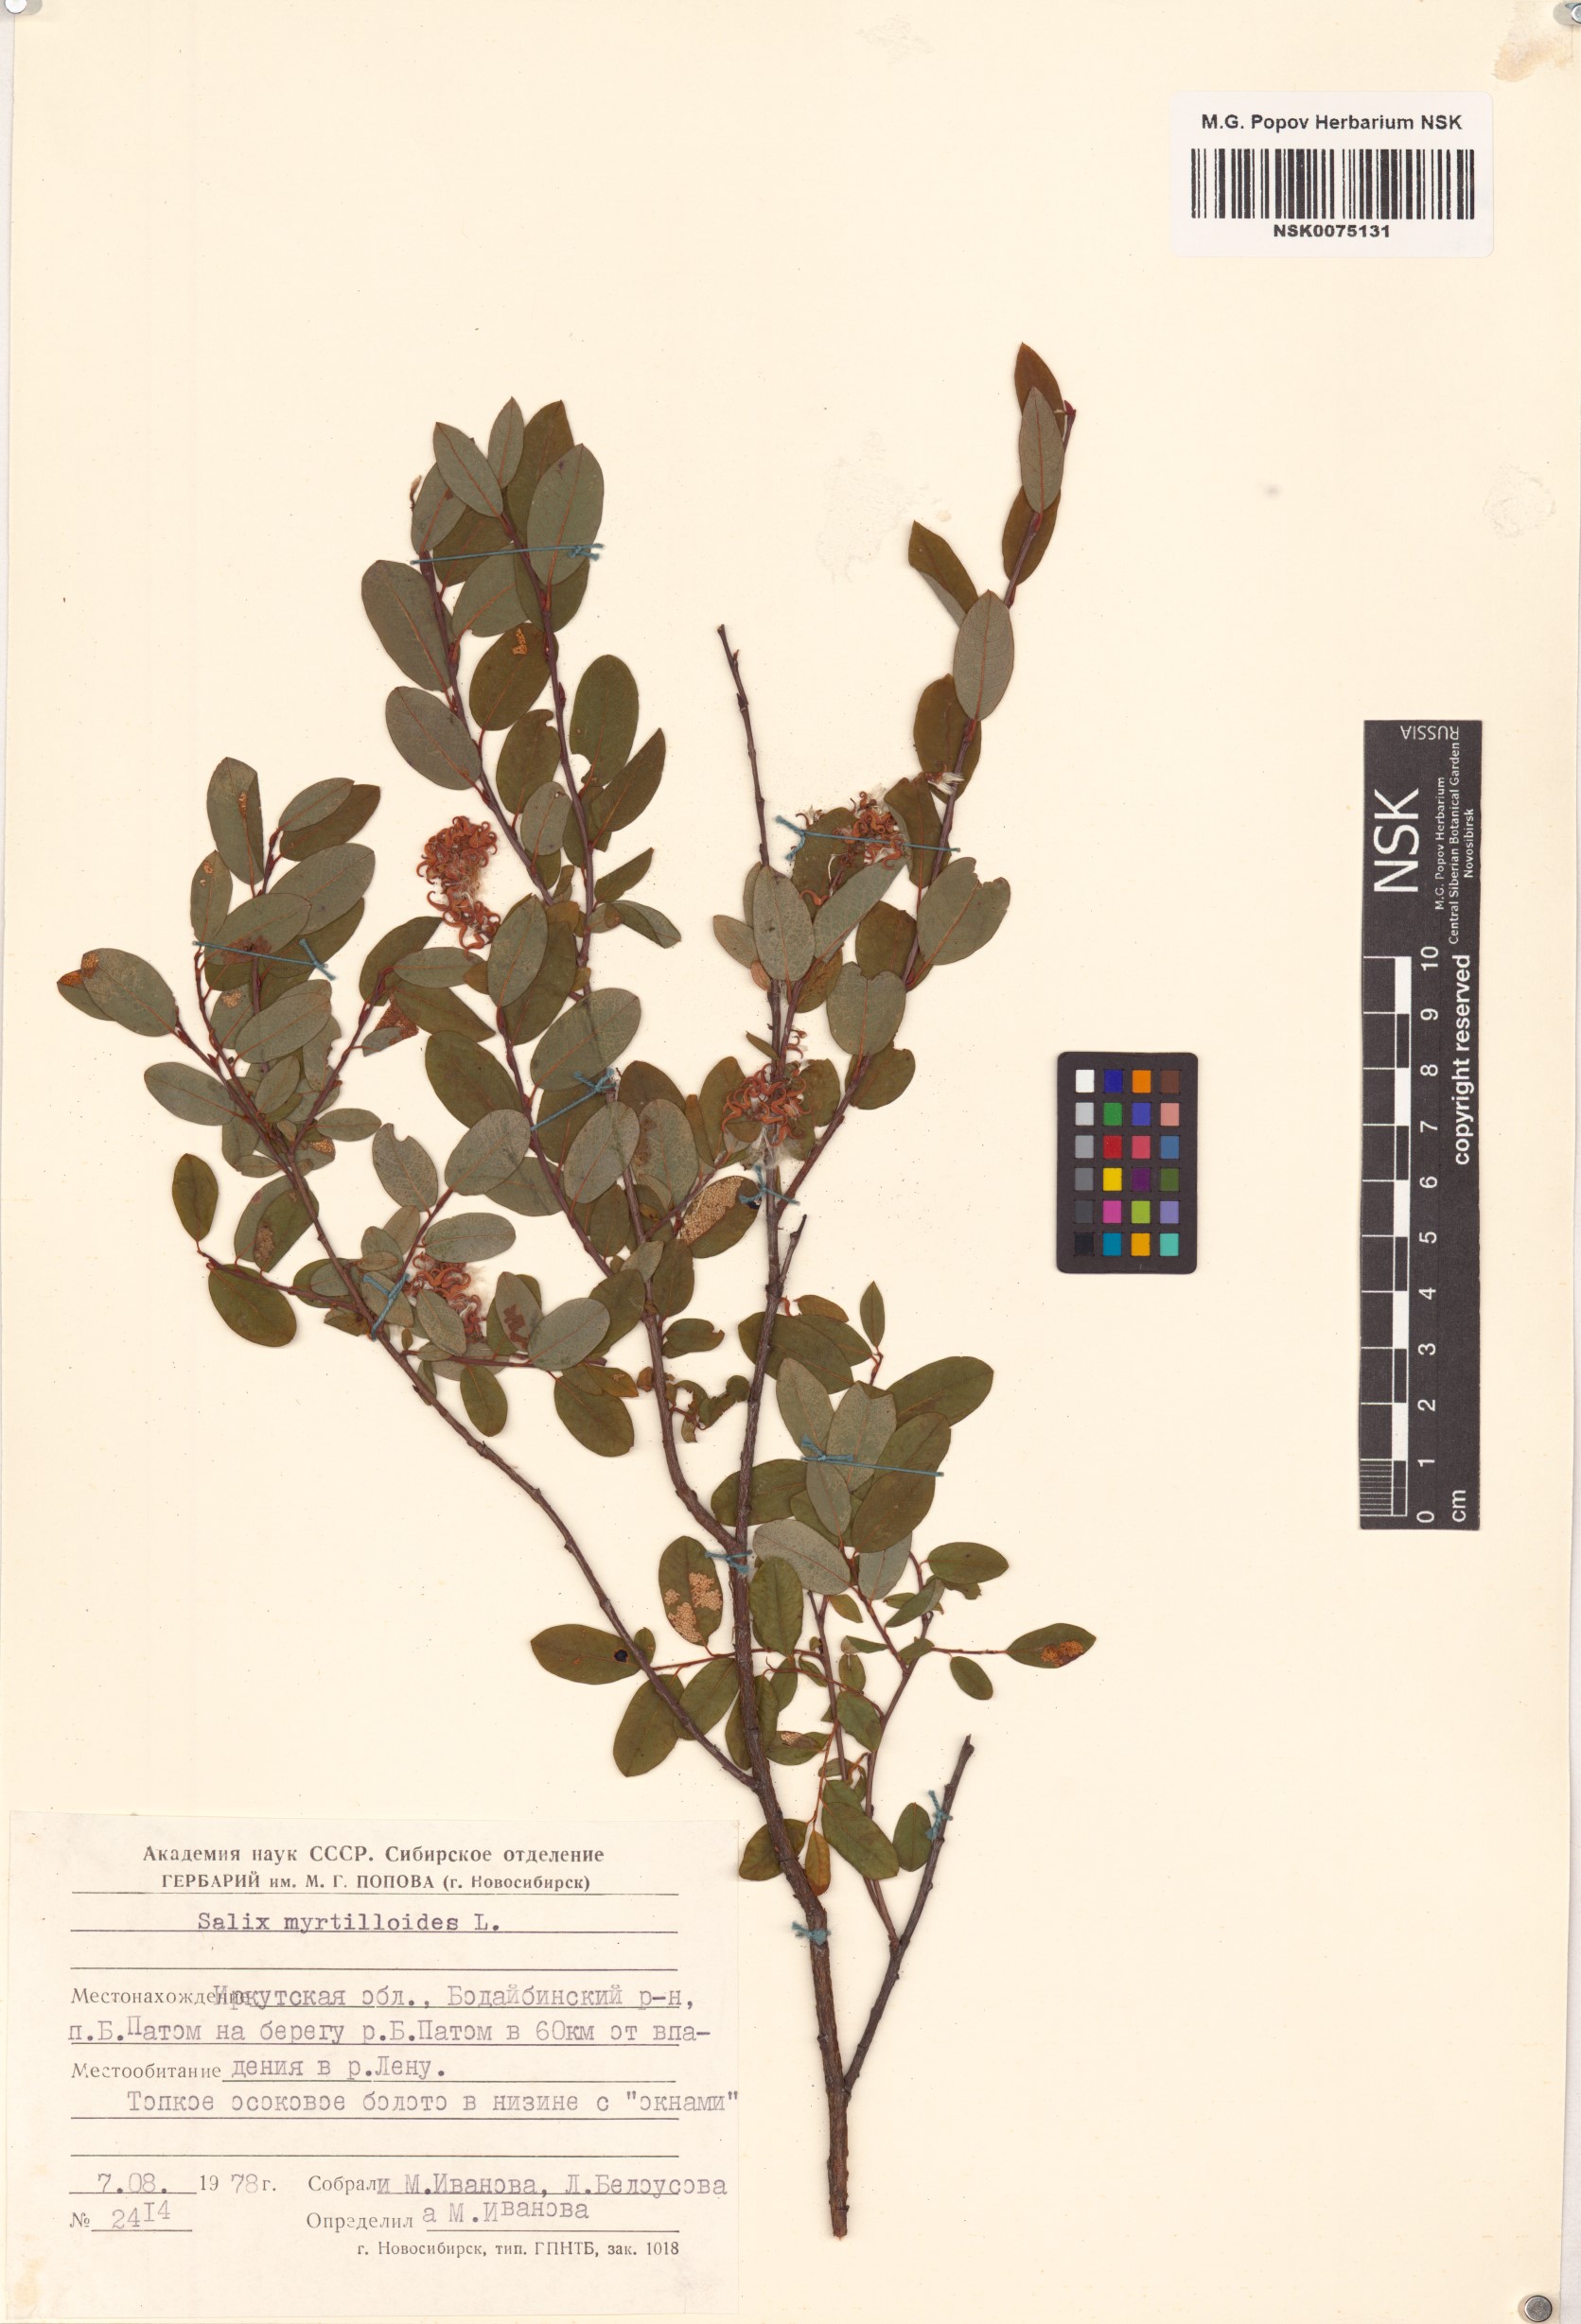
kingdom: Plantae
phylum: Tracheophyta
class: Magnoliopsida
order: Malpighiales
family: Salicaceae
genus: Salix
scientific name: Salix myrtilloides
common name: Myrtle-leaved willow
